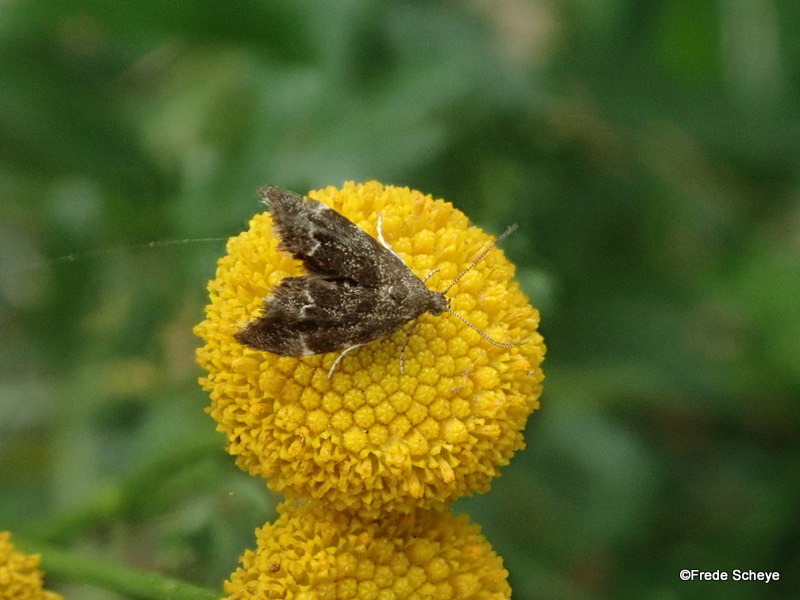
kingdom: Animalia
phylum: Arthropoda
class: Insecta
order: Lepidoptera
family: Choreutidae
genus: Anthophila
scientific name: Anthophila fabriciana
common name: Bredvinget nældevikler
